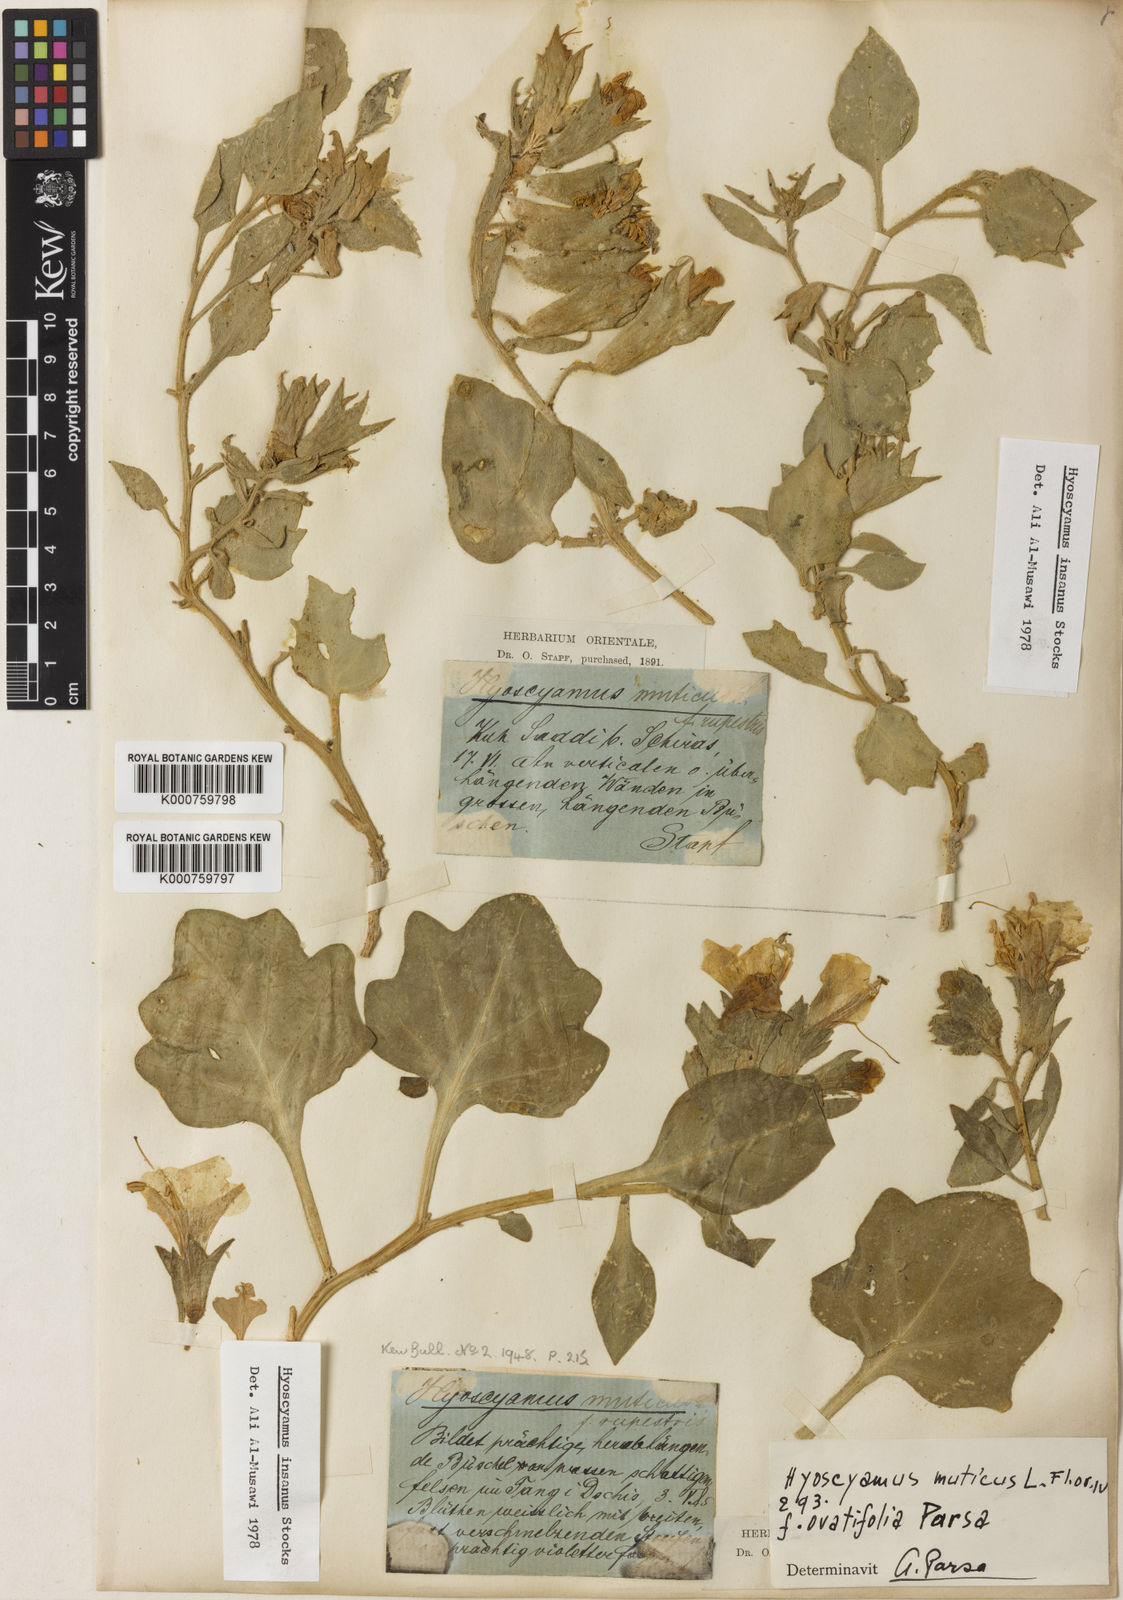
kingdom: Plantae
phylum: Tracheophyta
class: Magnoliopsida
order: Solanales
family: Solanaceae
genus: Hyoscyamus
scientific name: Hyoscyamus
